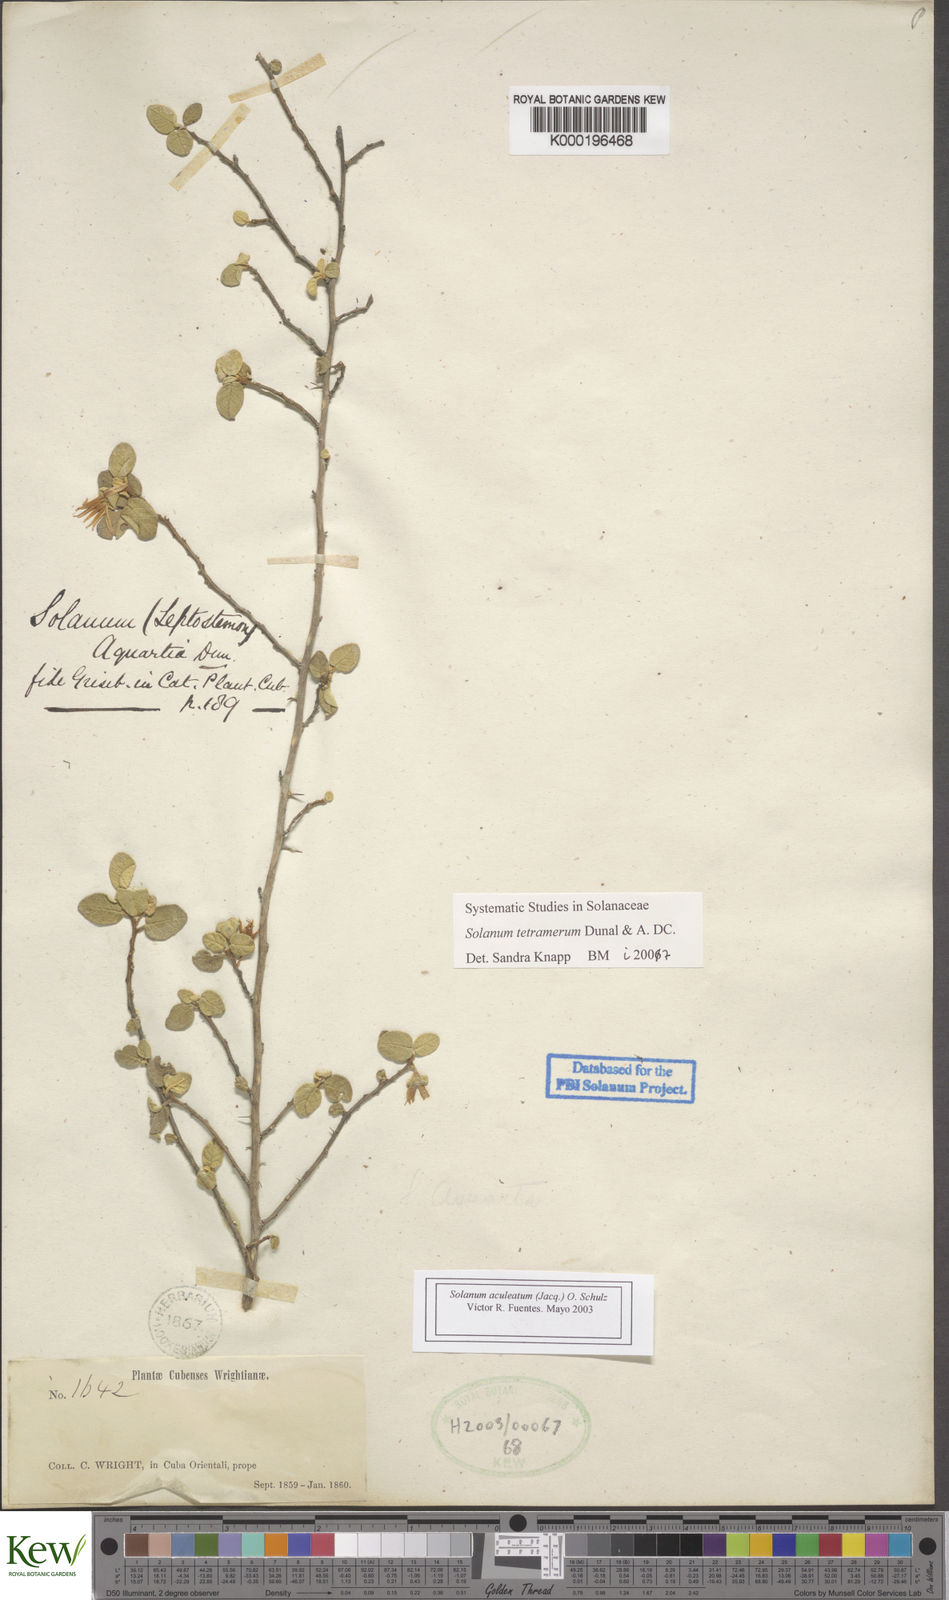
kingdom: Plantae
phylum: Tracheophyta
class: Magnoliopsida
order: Solanales
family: Solanaceae
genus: Solanum
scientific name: Solanum tetramerum
